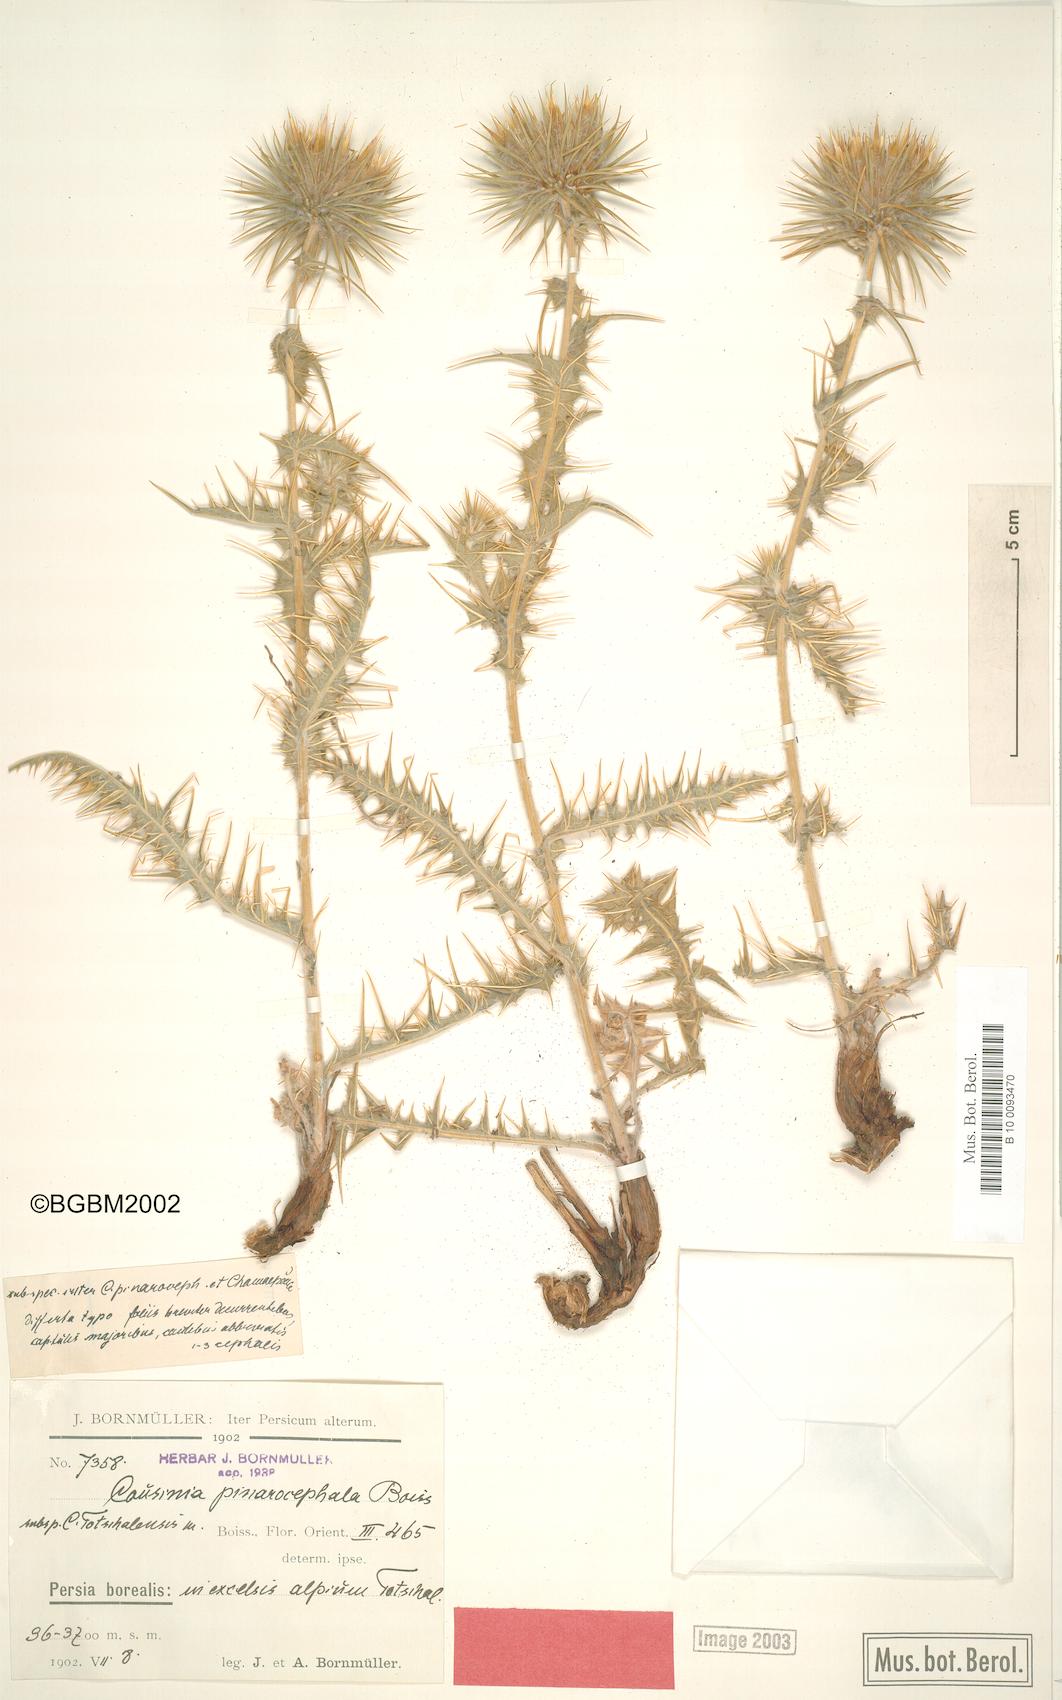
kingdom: Plantae
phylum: Tracheophyta
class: Magnoliopsida
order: Asterales
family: Asteraceae
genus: Cousinia
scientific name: Cousinia pinarocephala
